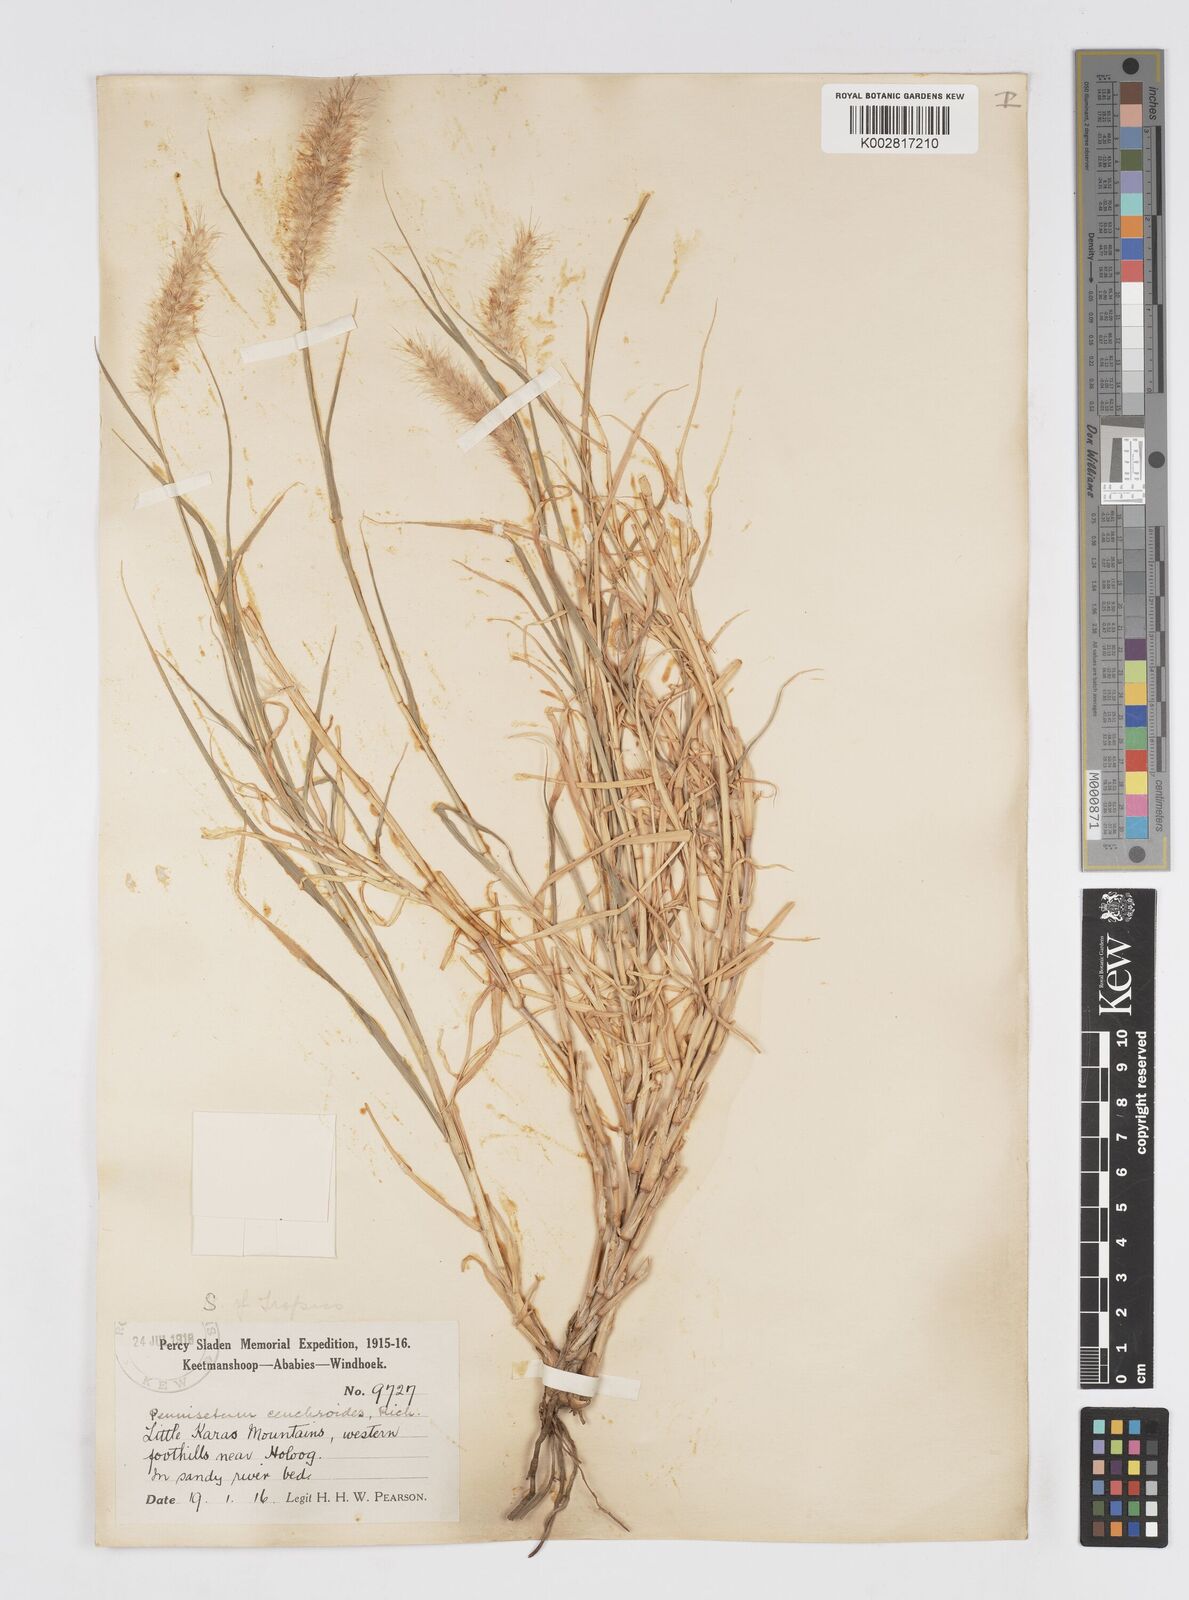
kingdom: Plantae
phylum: Tracheophyta
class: Liliopsida
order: Poales
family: Poaceae
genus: Cenchrus
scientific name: Cenchrus ciliaris
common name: Buffelgrass
